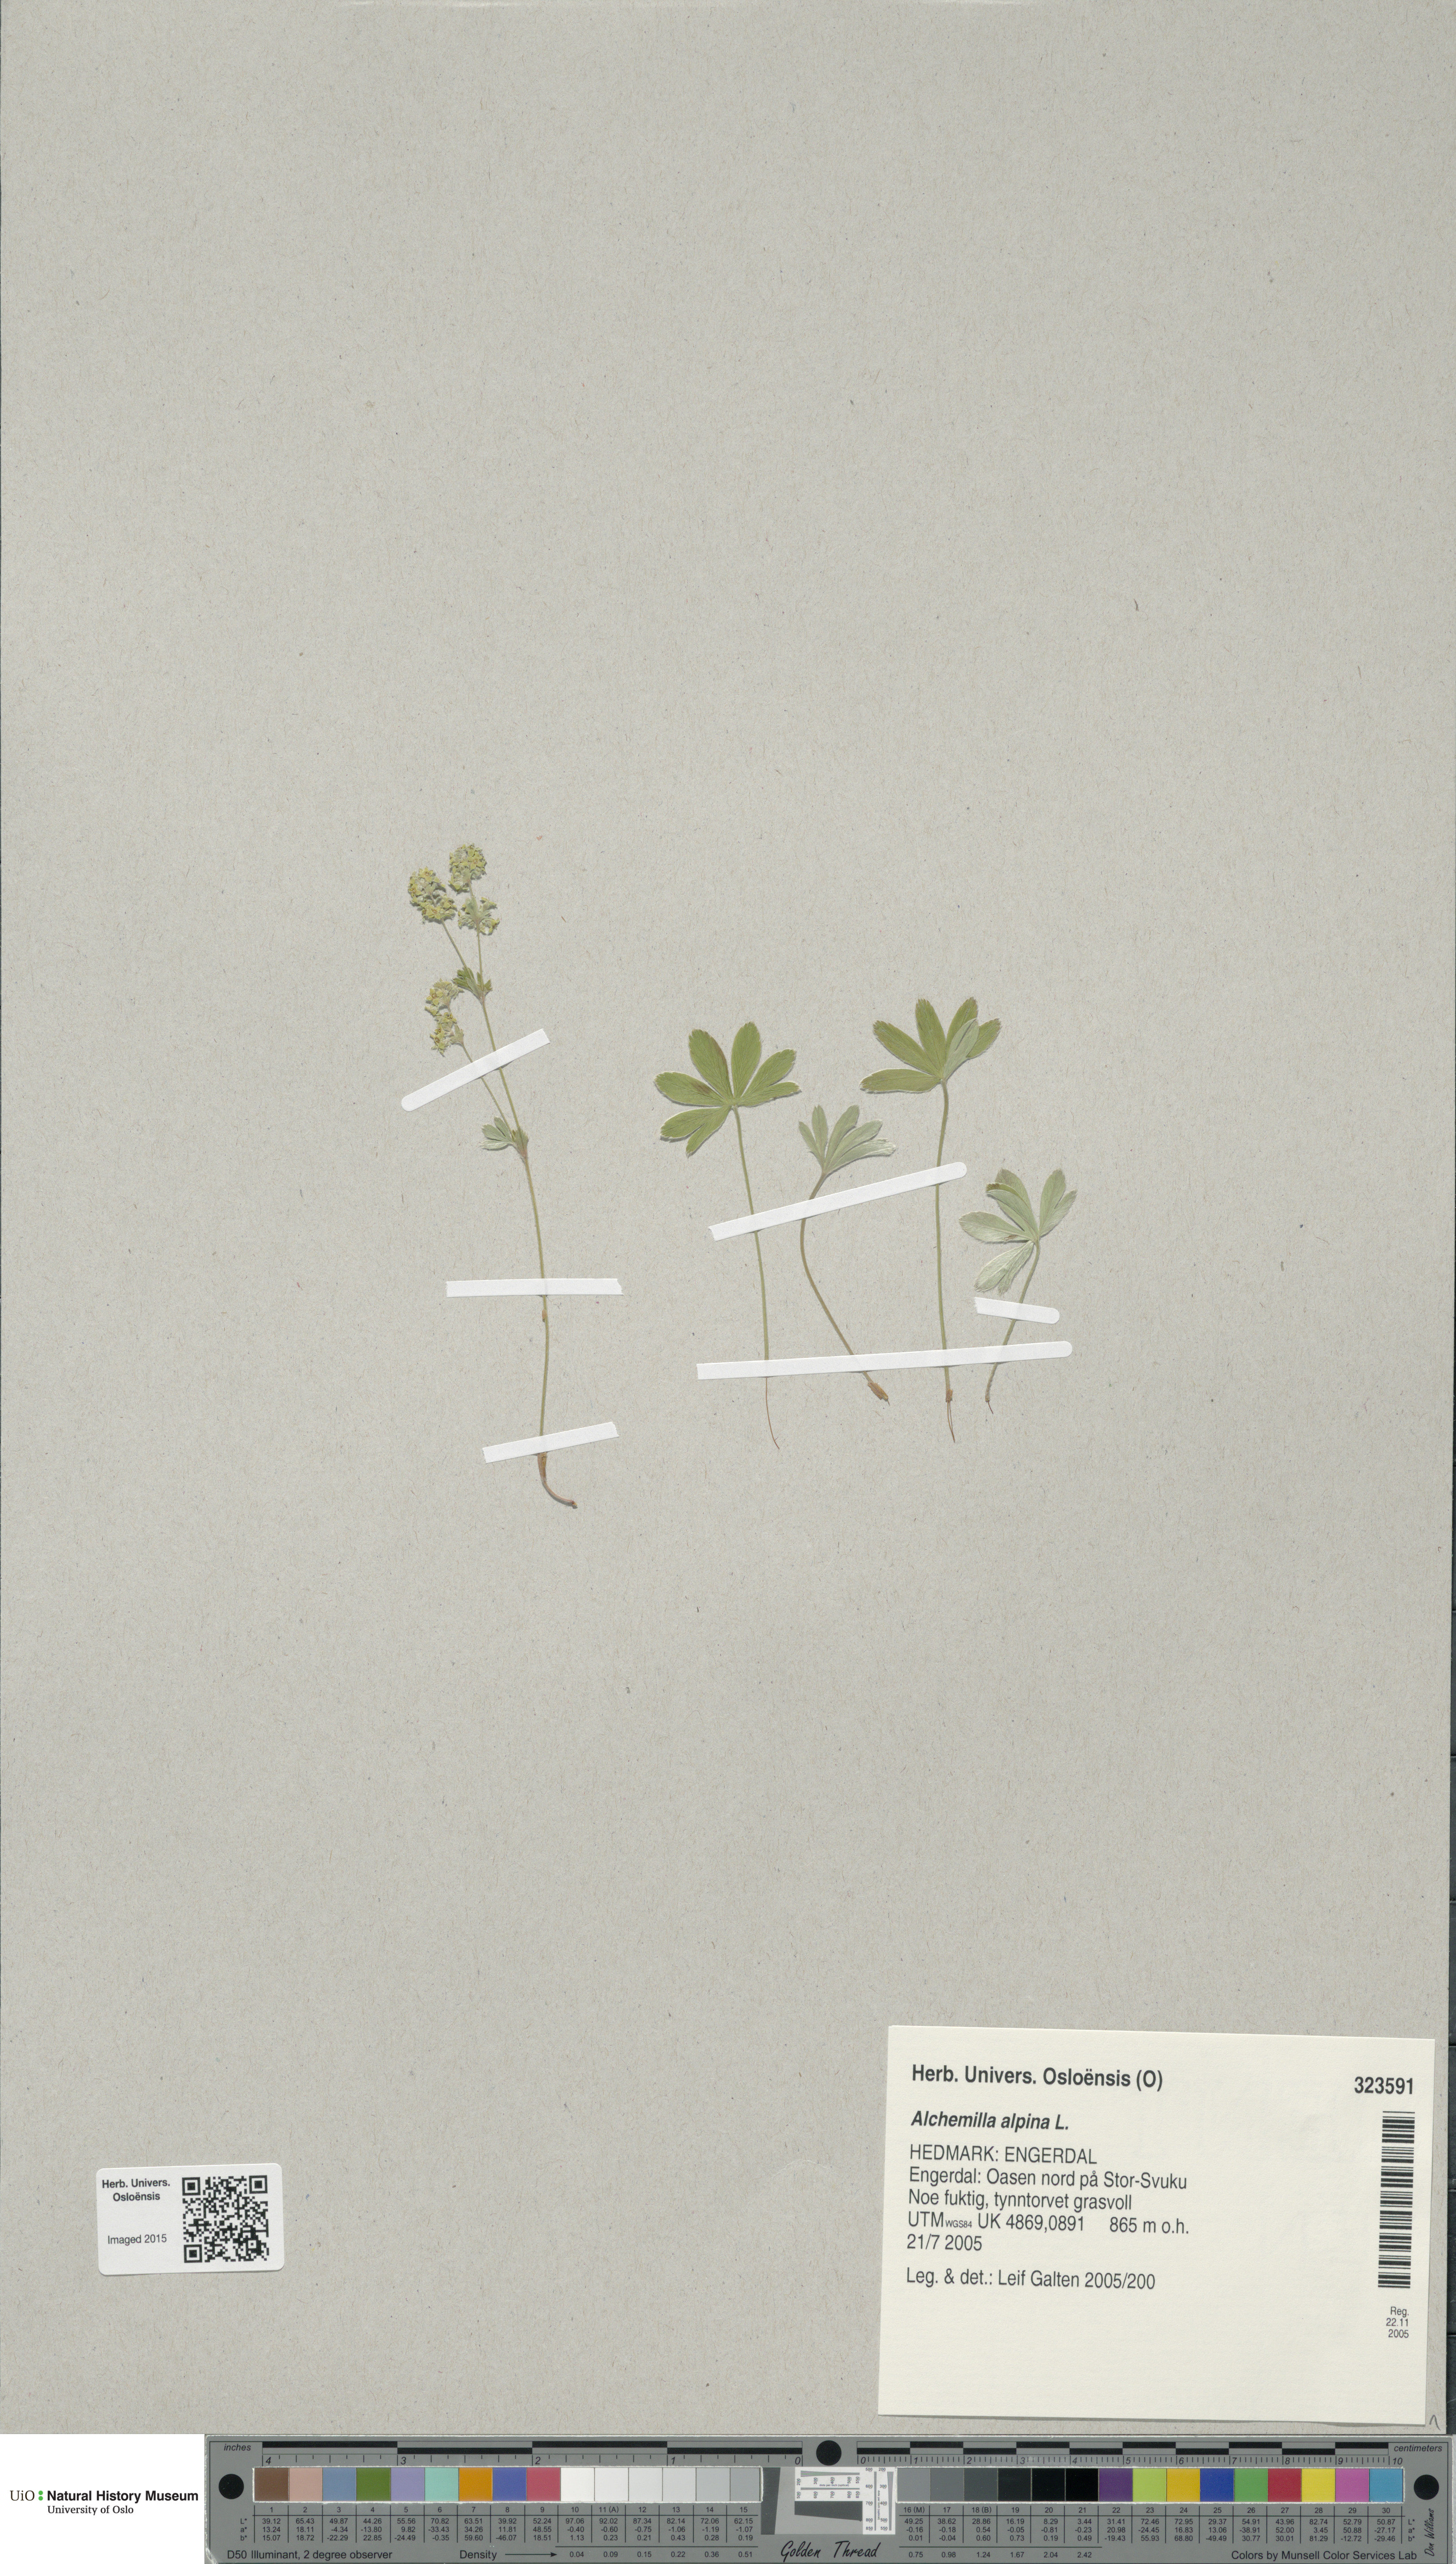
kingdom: Plantae
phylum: Tracheophyta
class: Magnoliopsida
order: Rosales
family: Rosaceae
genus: Alchemilla
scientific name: Alchemilla alpina
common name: Alpine lady's-mantle
